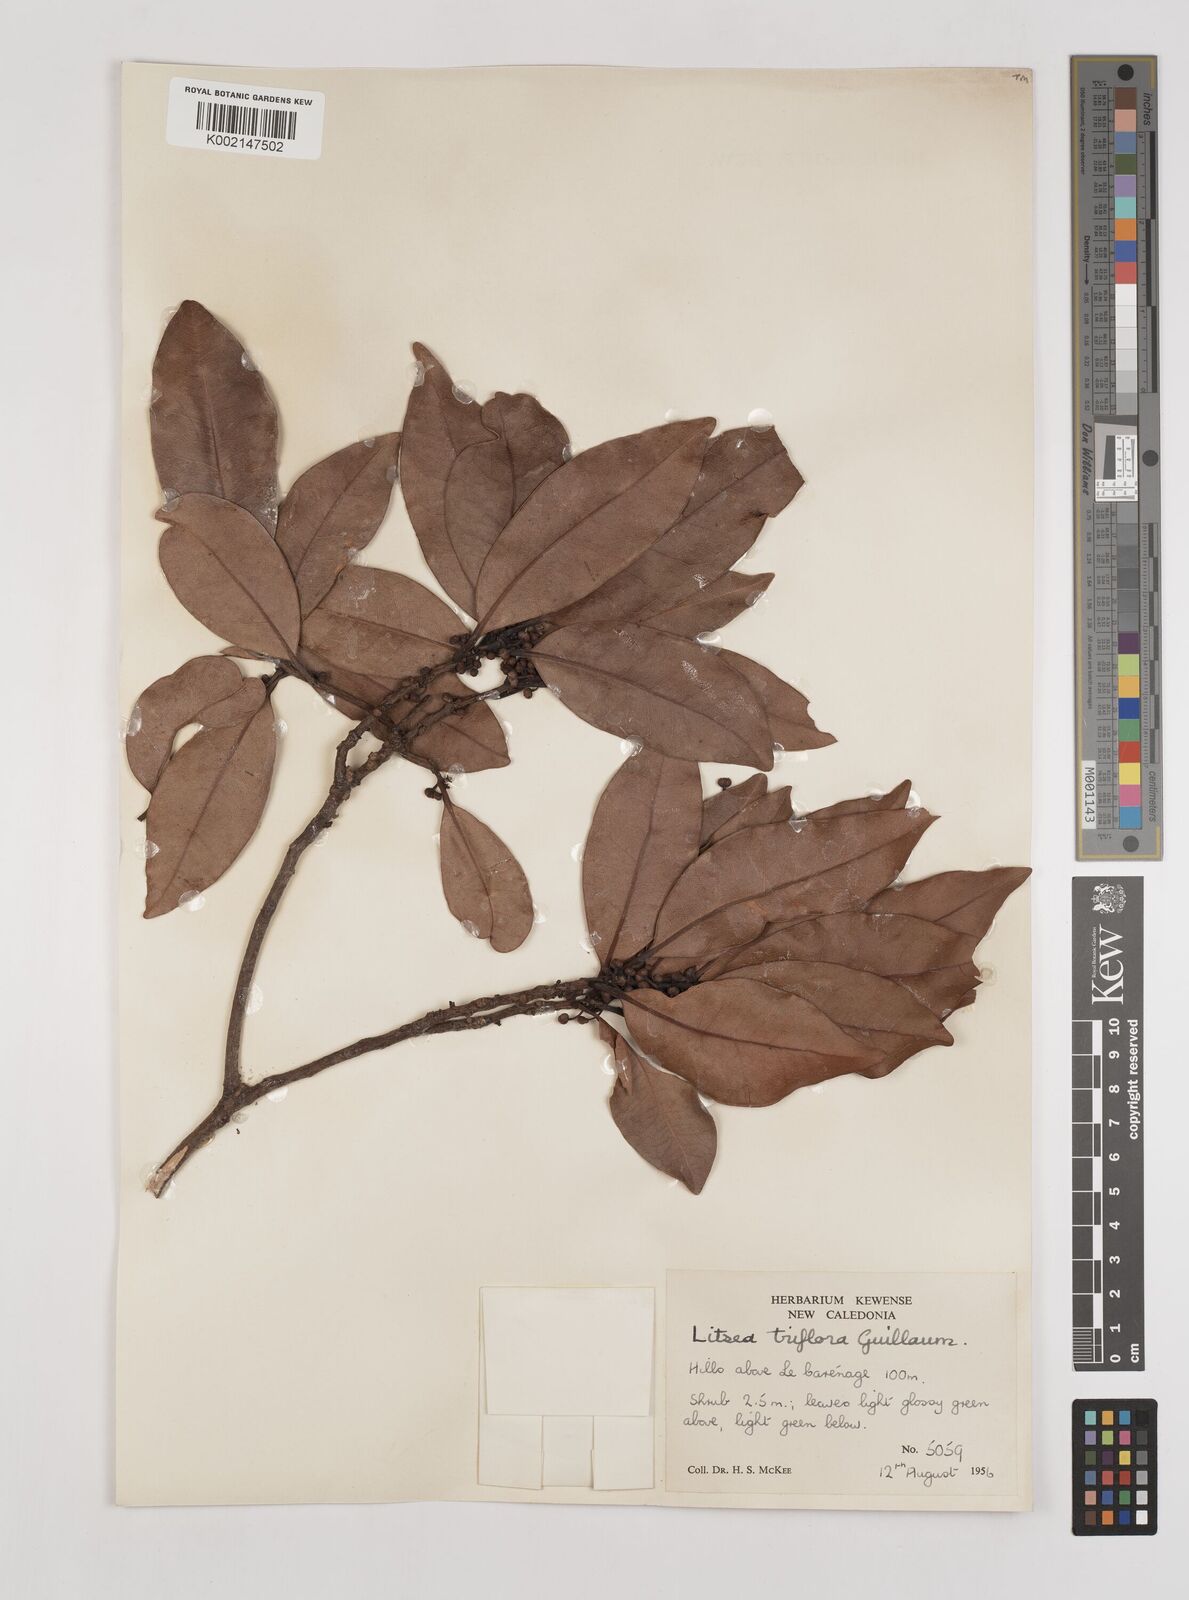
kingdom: Plantae
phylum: Tracheophyta
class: Magnoliopsida
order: Laurales
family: Lauraceae
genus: Litsea
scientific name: Litsea triflora
